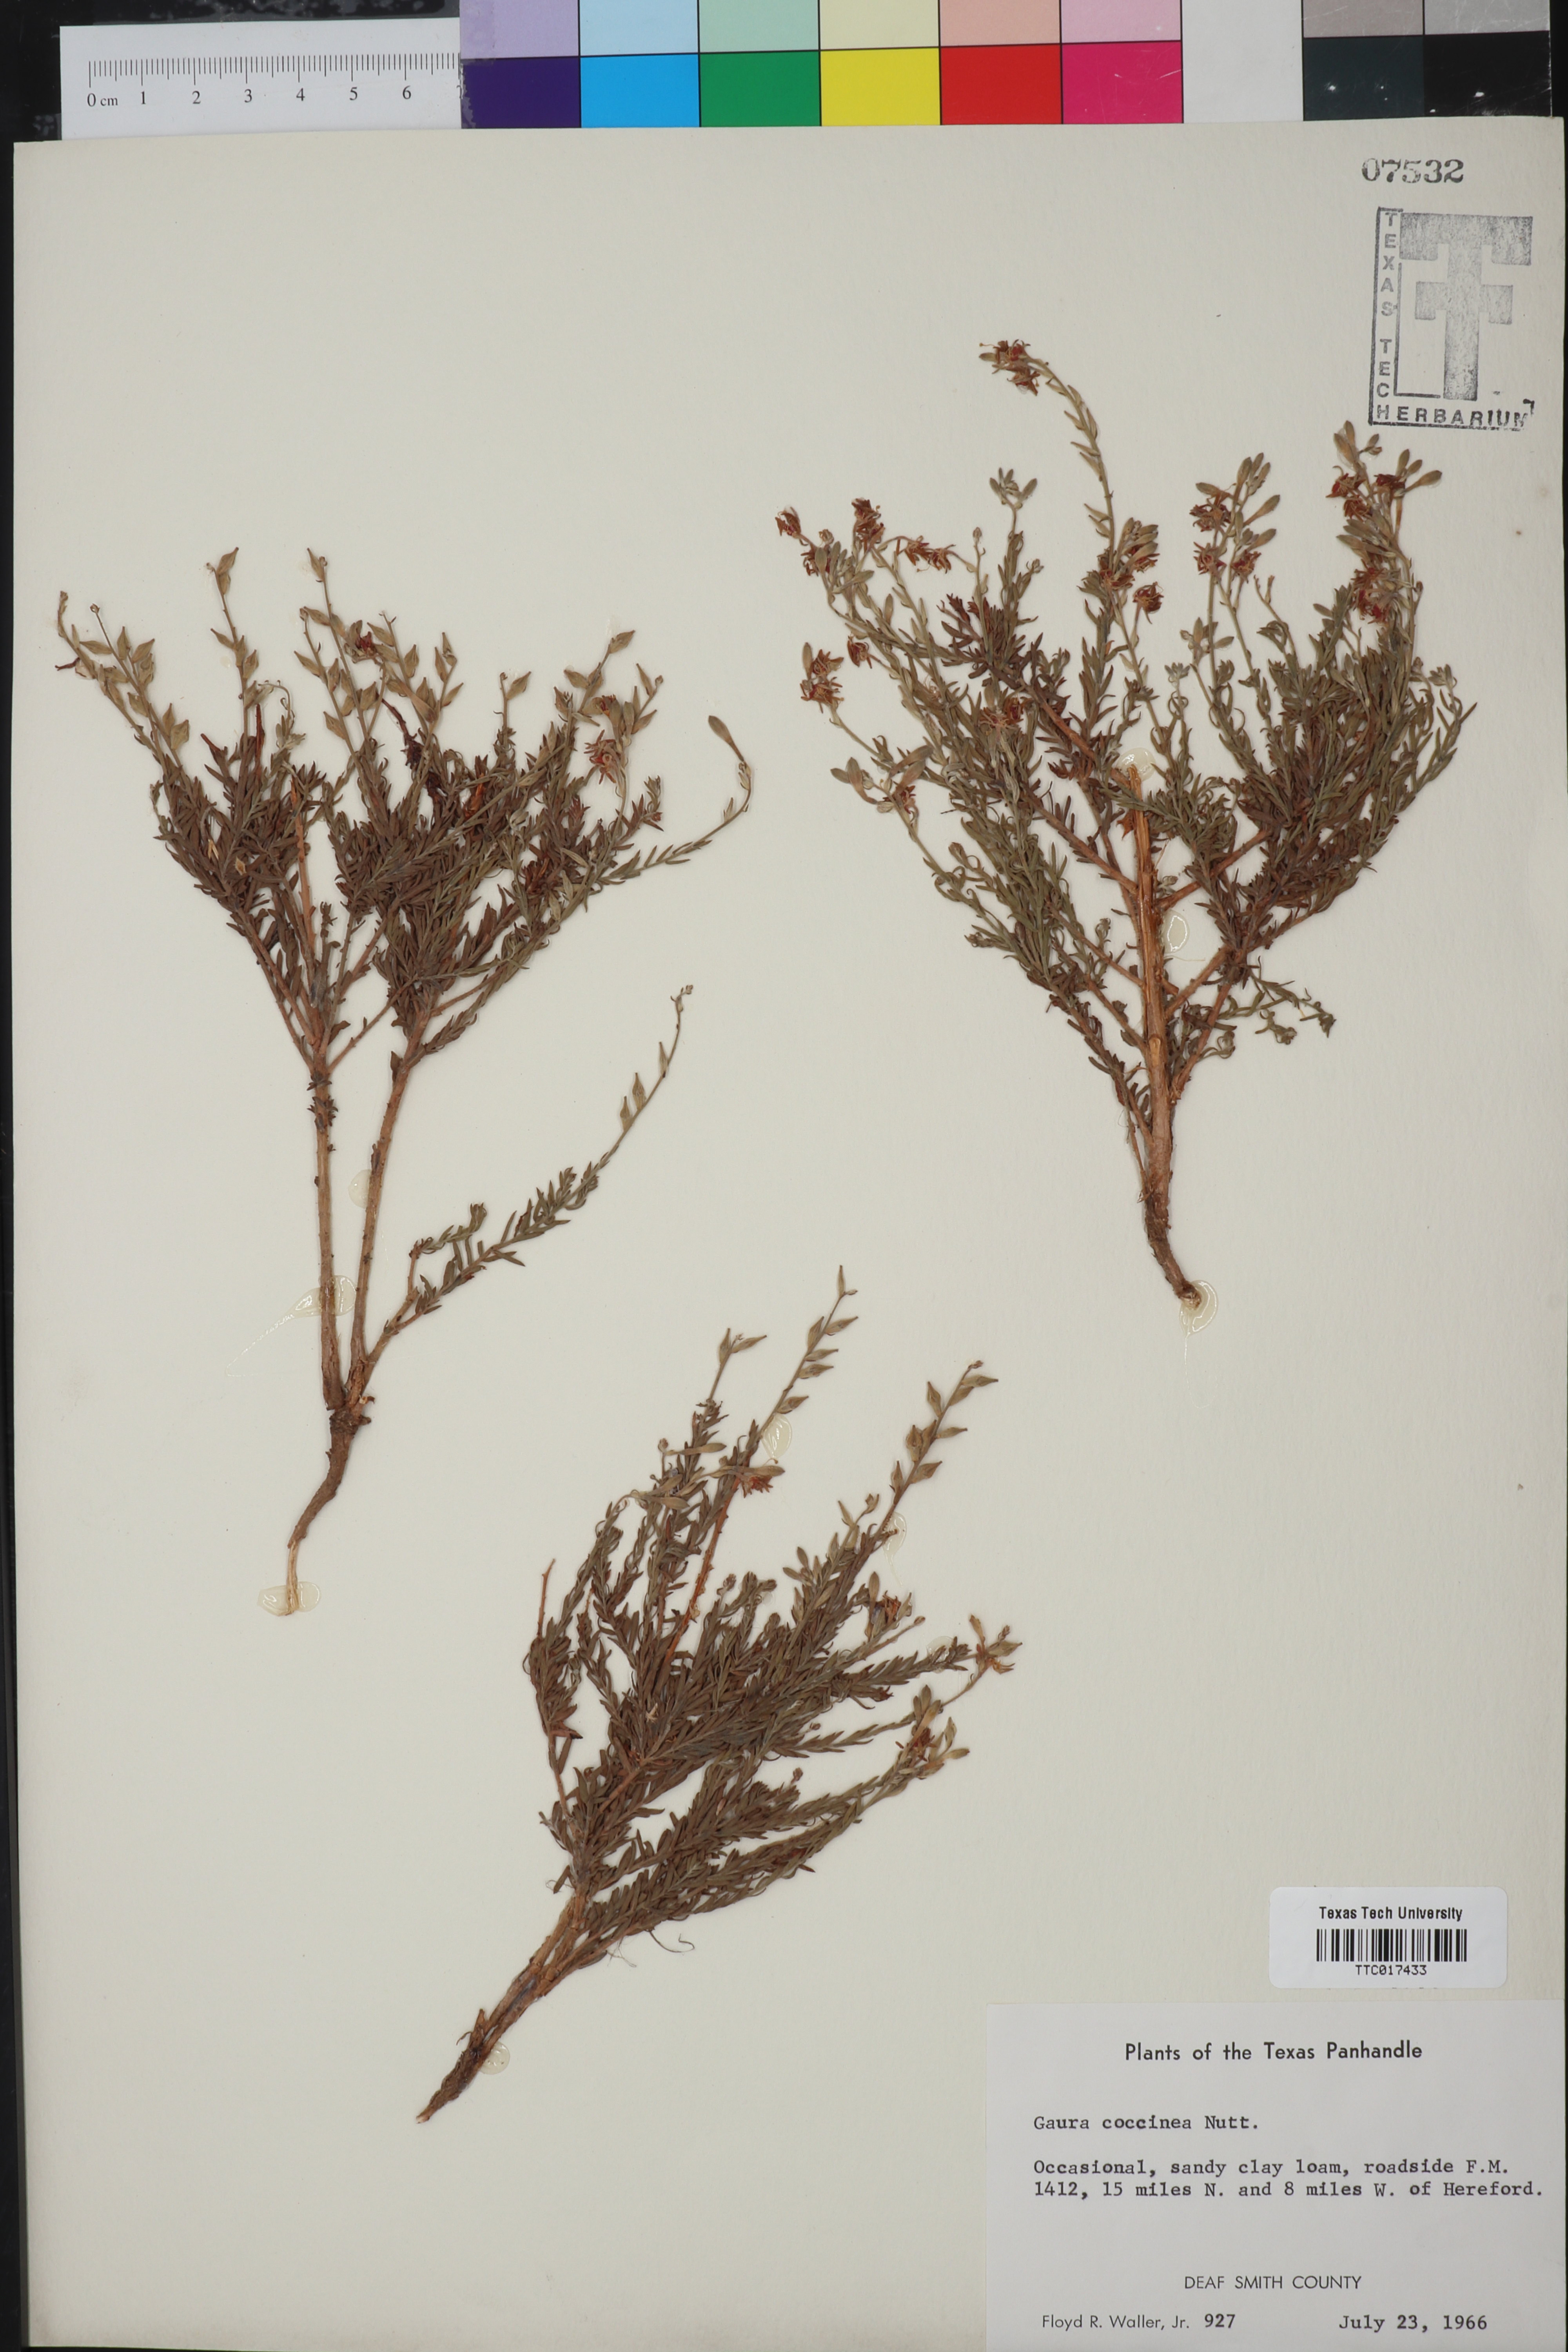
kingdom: Plantae
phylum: Tracheophyta
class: Magnoliopsida
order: Myrtales
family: Onagraceae
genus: Oenothera
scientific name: Oenothera suffrutescens
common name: Scarlet beeblossom
